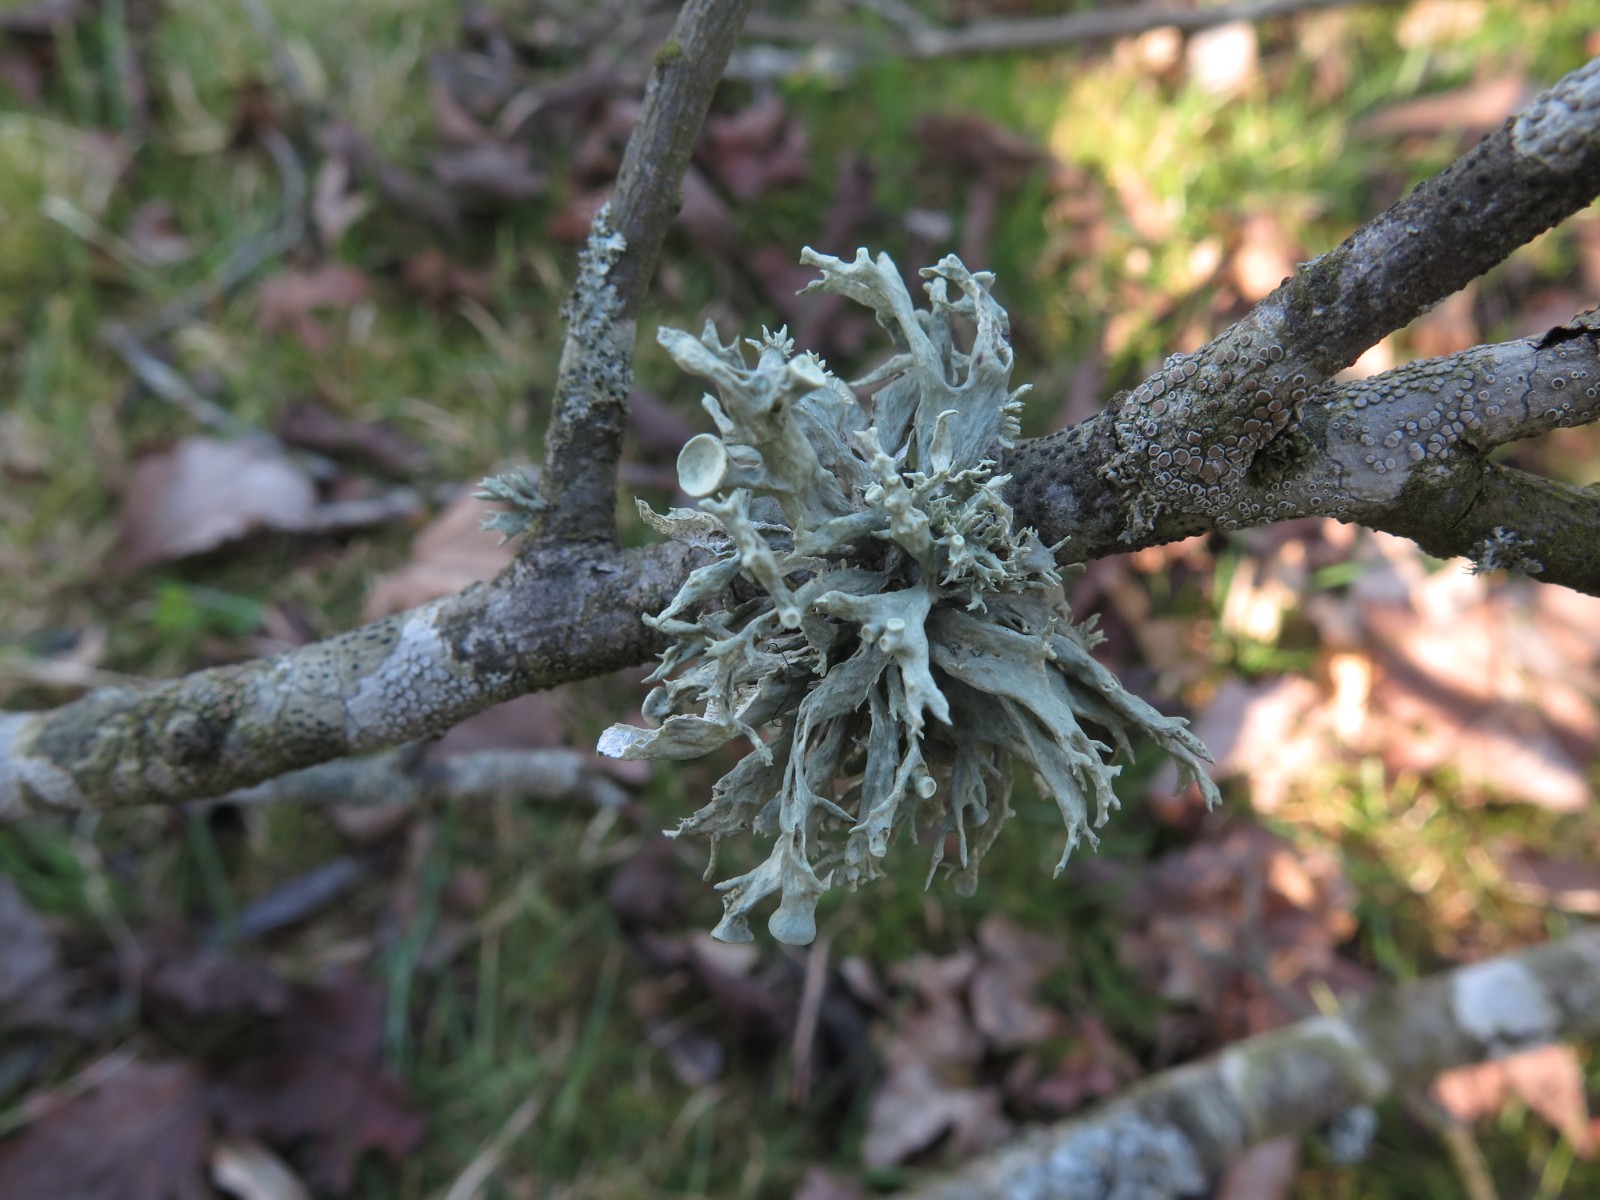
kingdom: Fungi
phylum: Ascomycota
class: Lecanoromycetes
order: Lecanorales
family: Ramalinaceae
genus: Ramalina
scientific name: Ramalina fastigiata
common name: tue-grenlav
